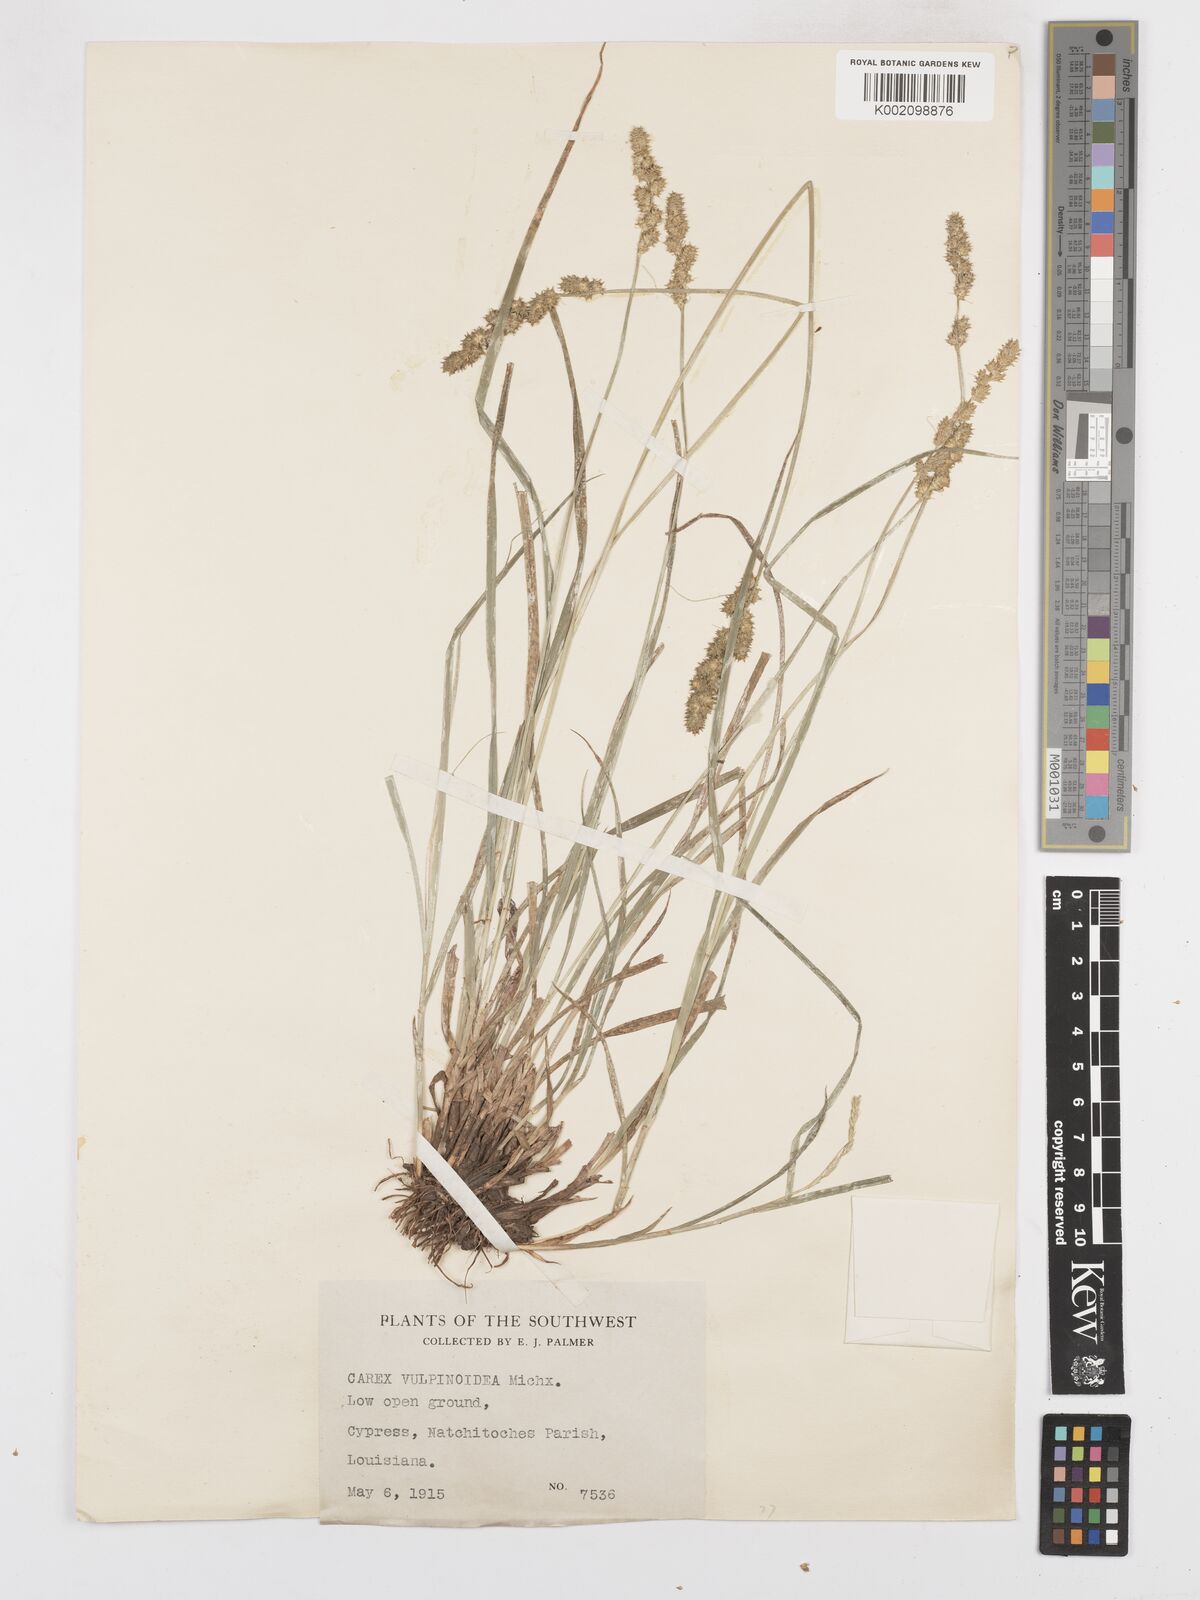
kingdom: Plantae
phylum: Tracheophyta
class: Liliopsida
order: Poales
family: Cyperaceae
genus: Carex
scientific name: Carex vulpinoidea
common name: American fox-sedge
